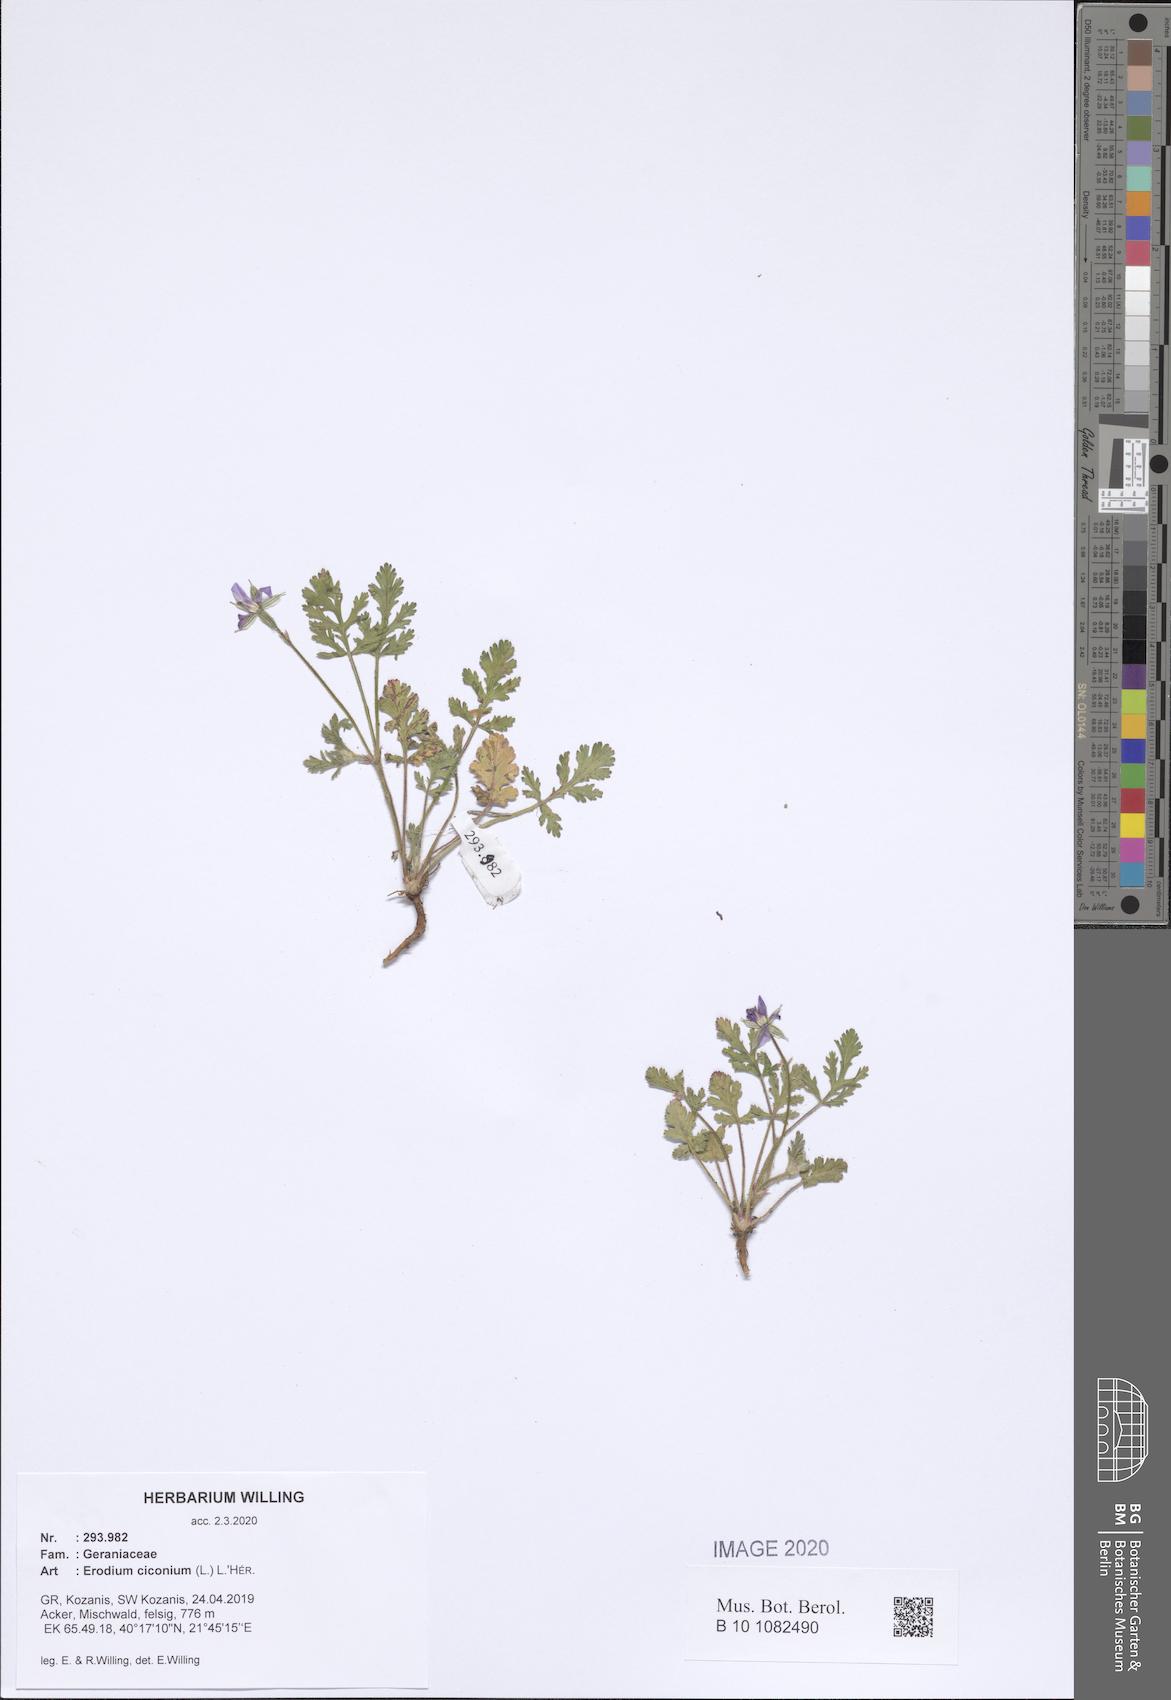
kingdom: Plantae
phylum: Tracheophyta
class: Magnoliopsida
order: Geraniales
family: Geraniaceae
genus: Erodium
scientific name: Erodium ciconium
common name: Common stork's bill
